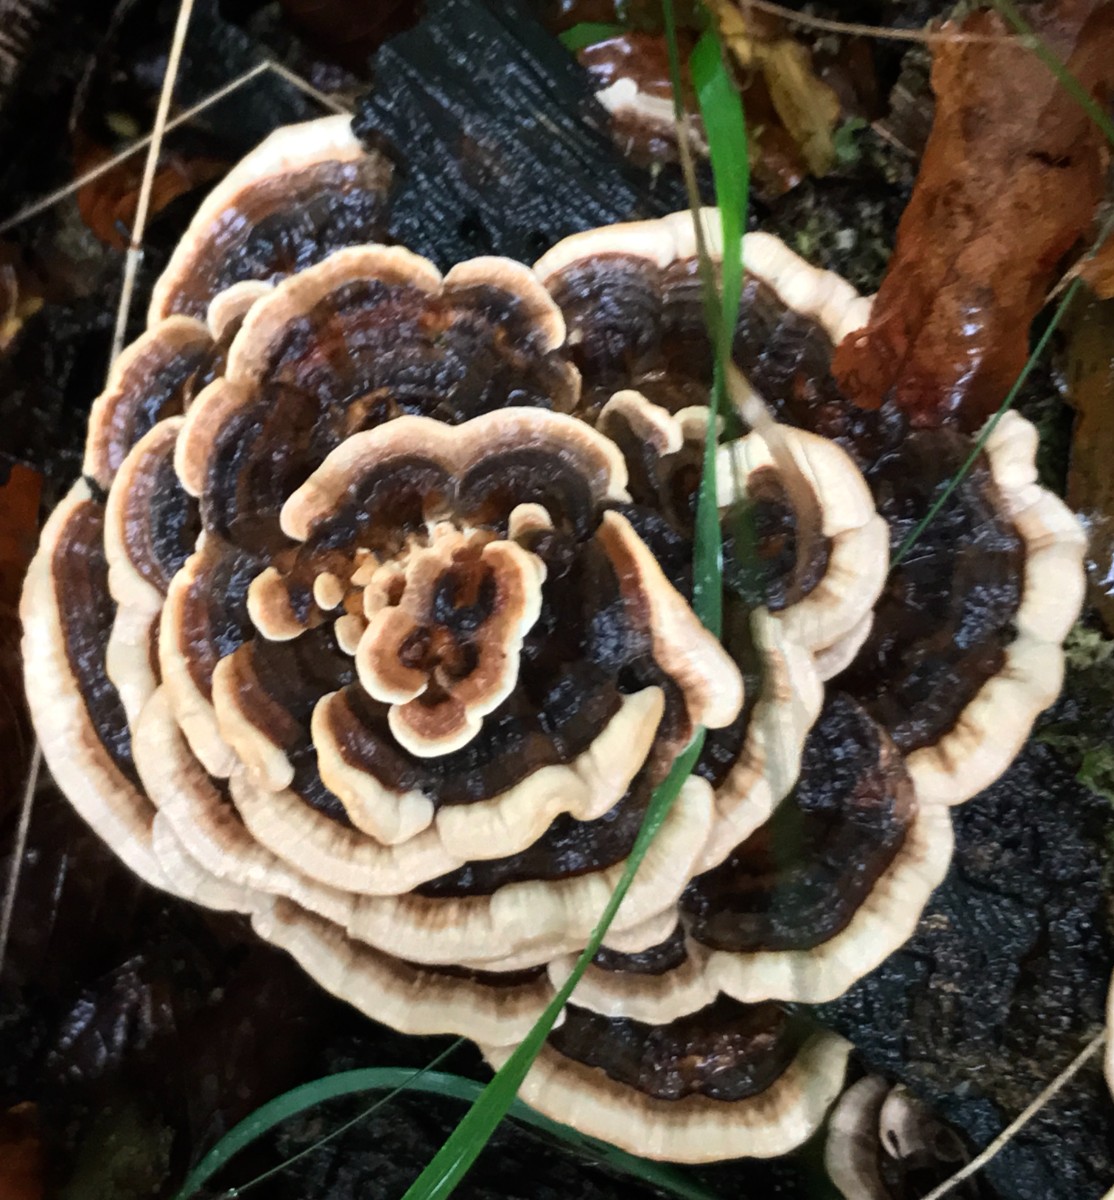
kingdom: Fungi
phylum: Basidiomycota
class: Agaricomycetes
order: Polyporales
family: Polyporaceae
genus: Trametes
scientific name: Trametes versicolor
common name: broget læderporesvamp
